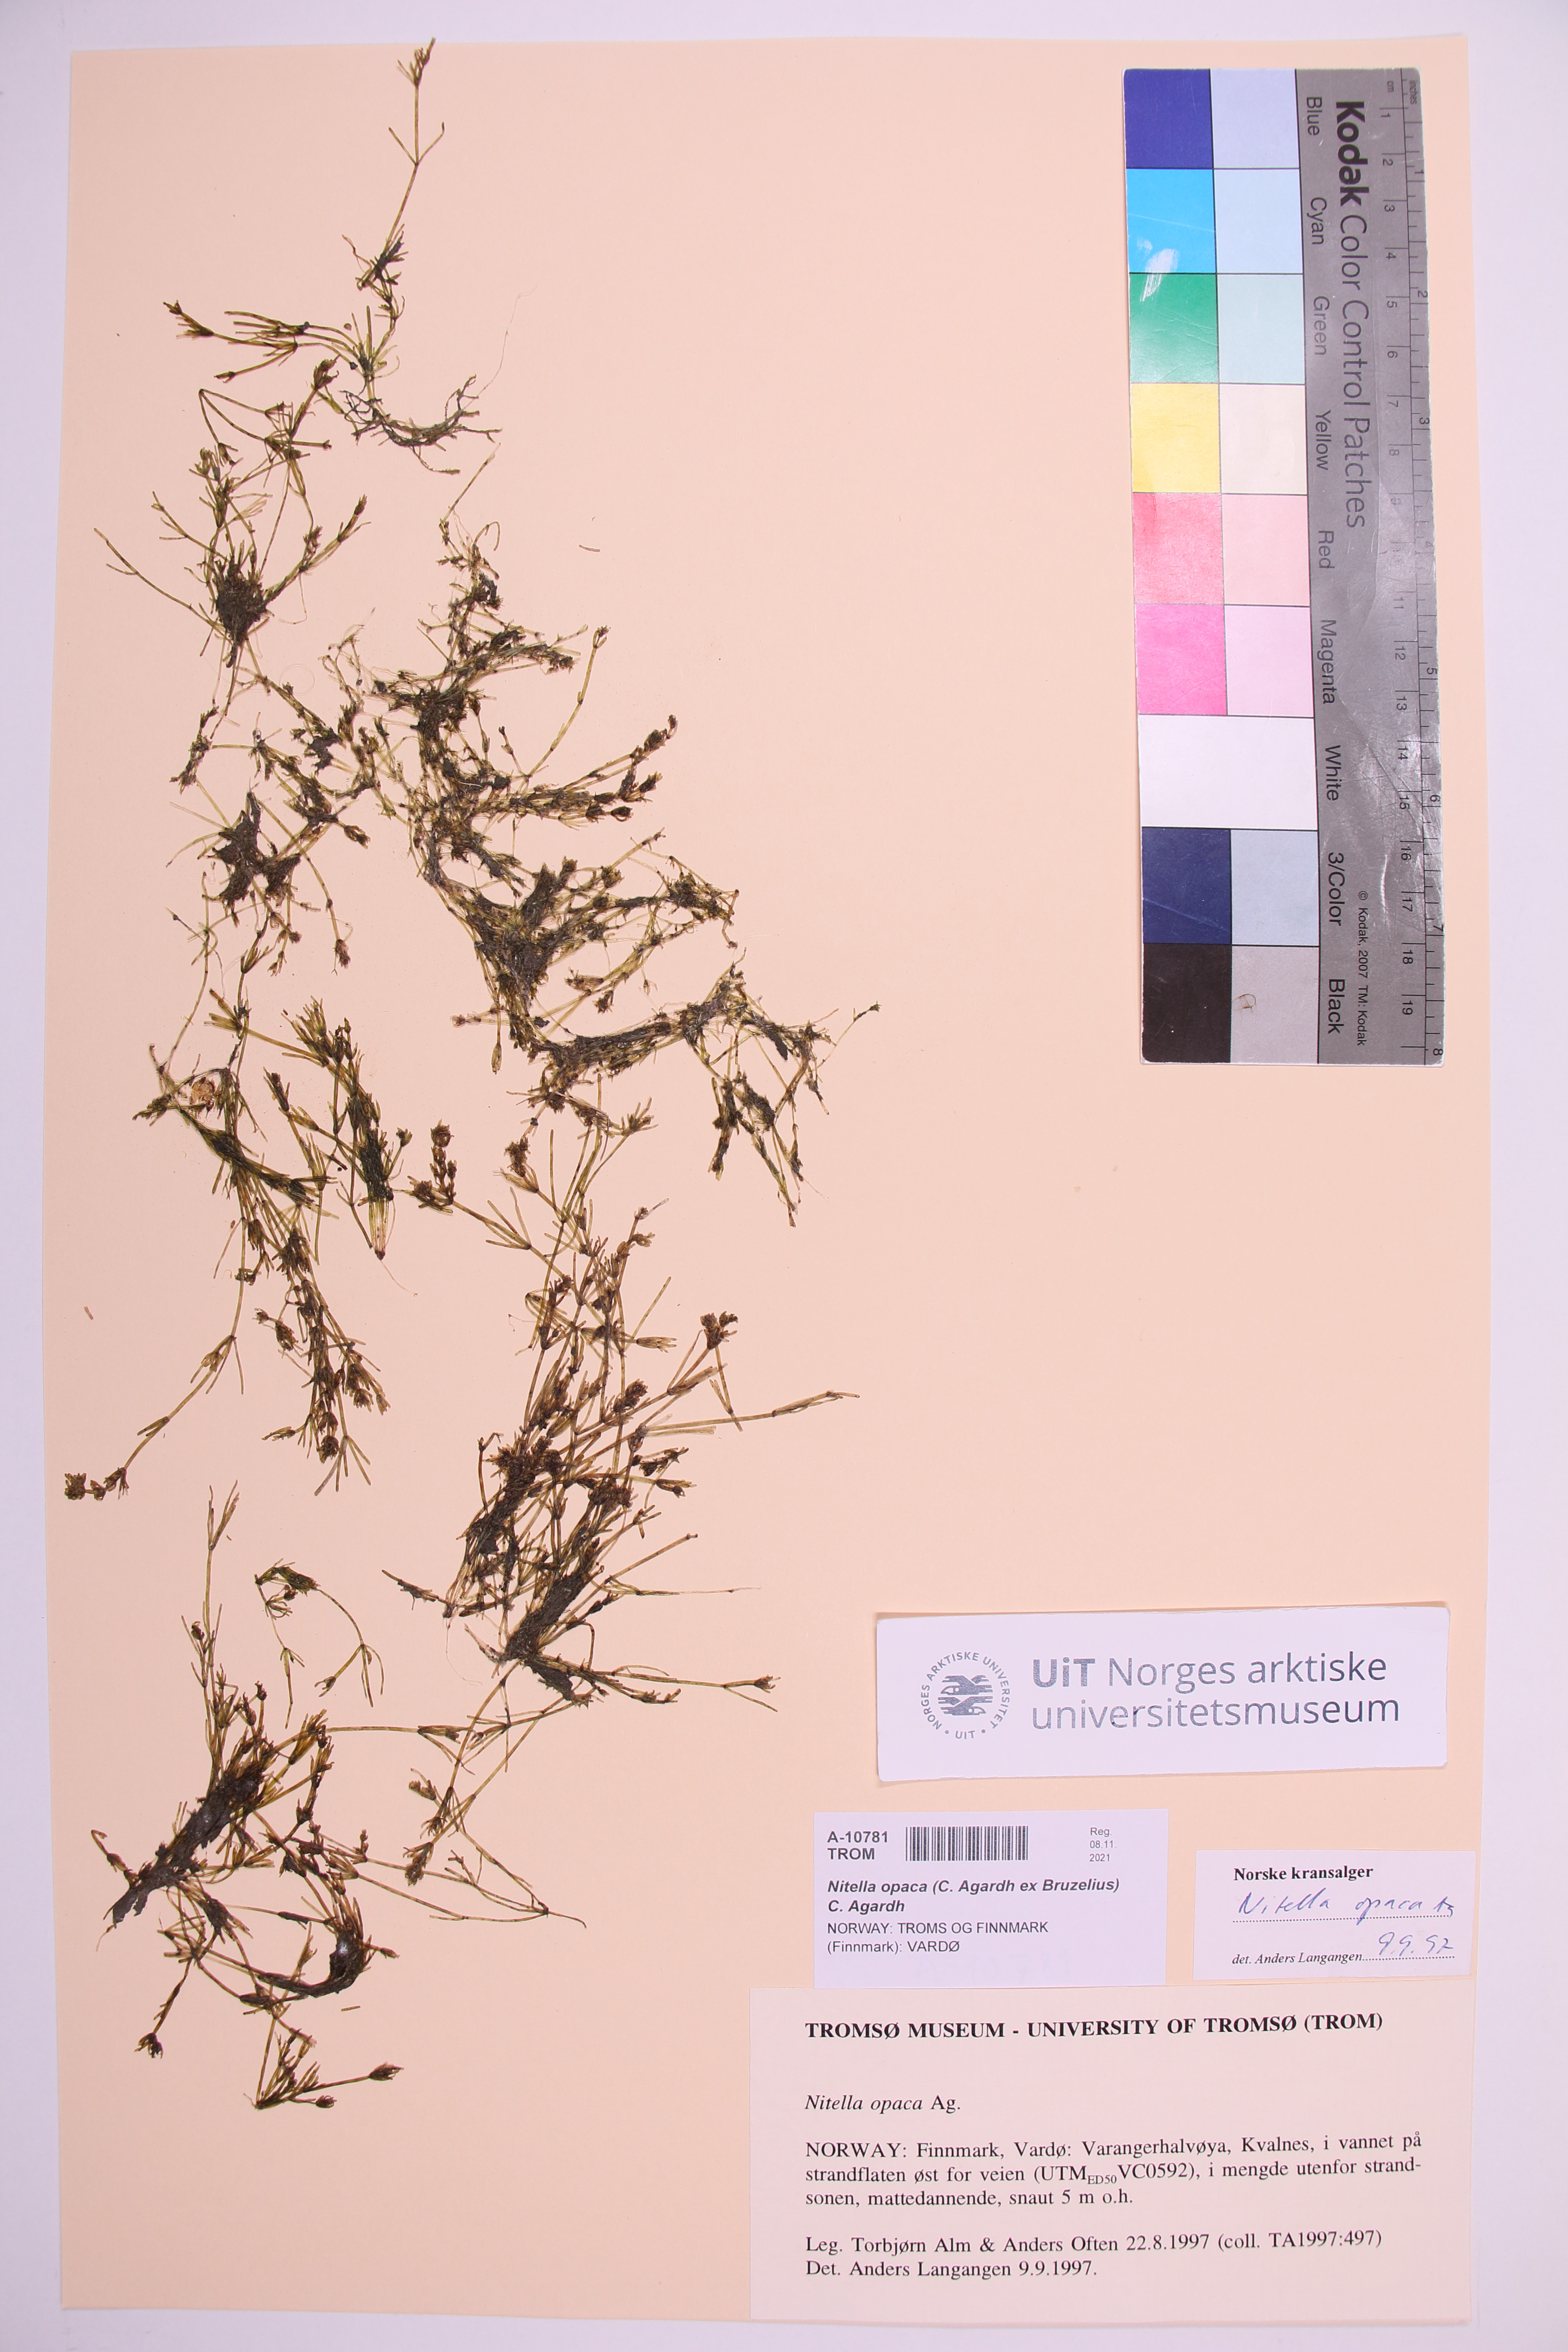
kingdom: Plantae
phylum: Charophyta
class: Charophyceae
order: Charales
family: Characeae
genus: Nitella
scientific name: Nitella opaca
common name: Dark stonewort
